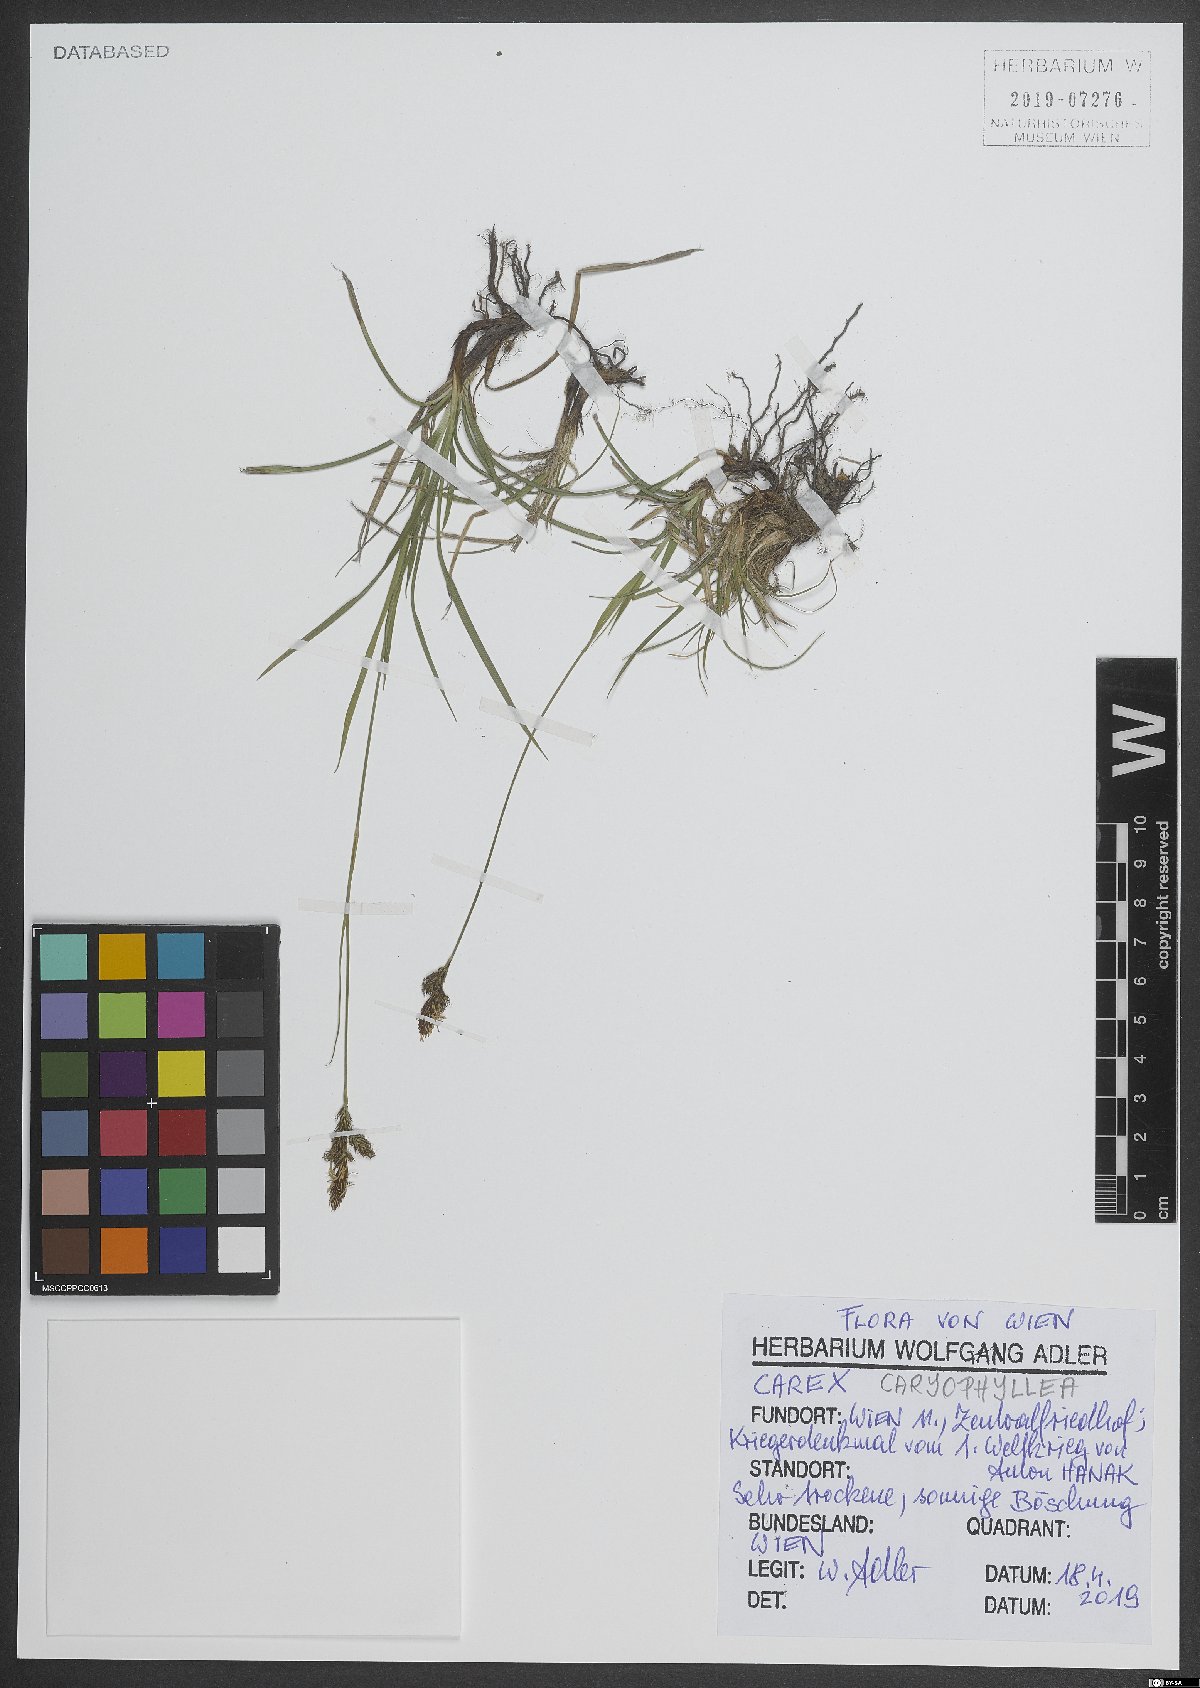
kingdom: Plantae
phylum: Tracheophyta
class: Liliopsida
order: Poales
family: Cyperaceae
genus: Carex
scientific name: Carex caryophyllea
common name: Spring sedge
